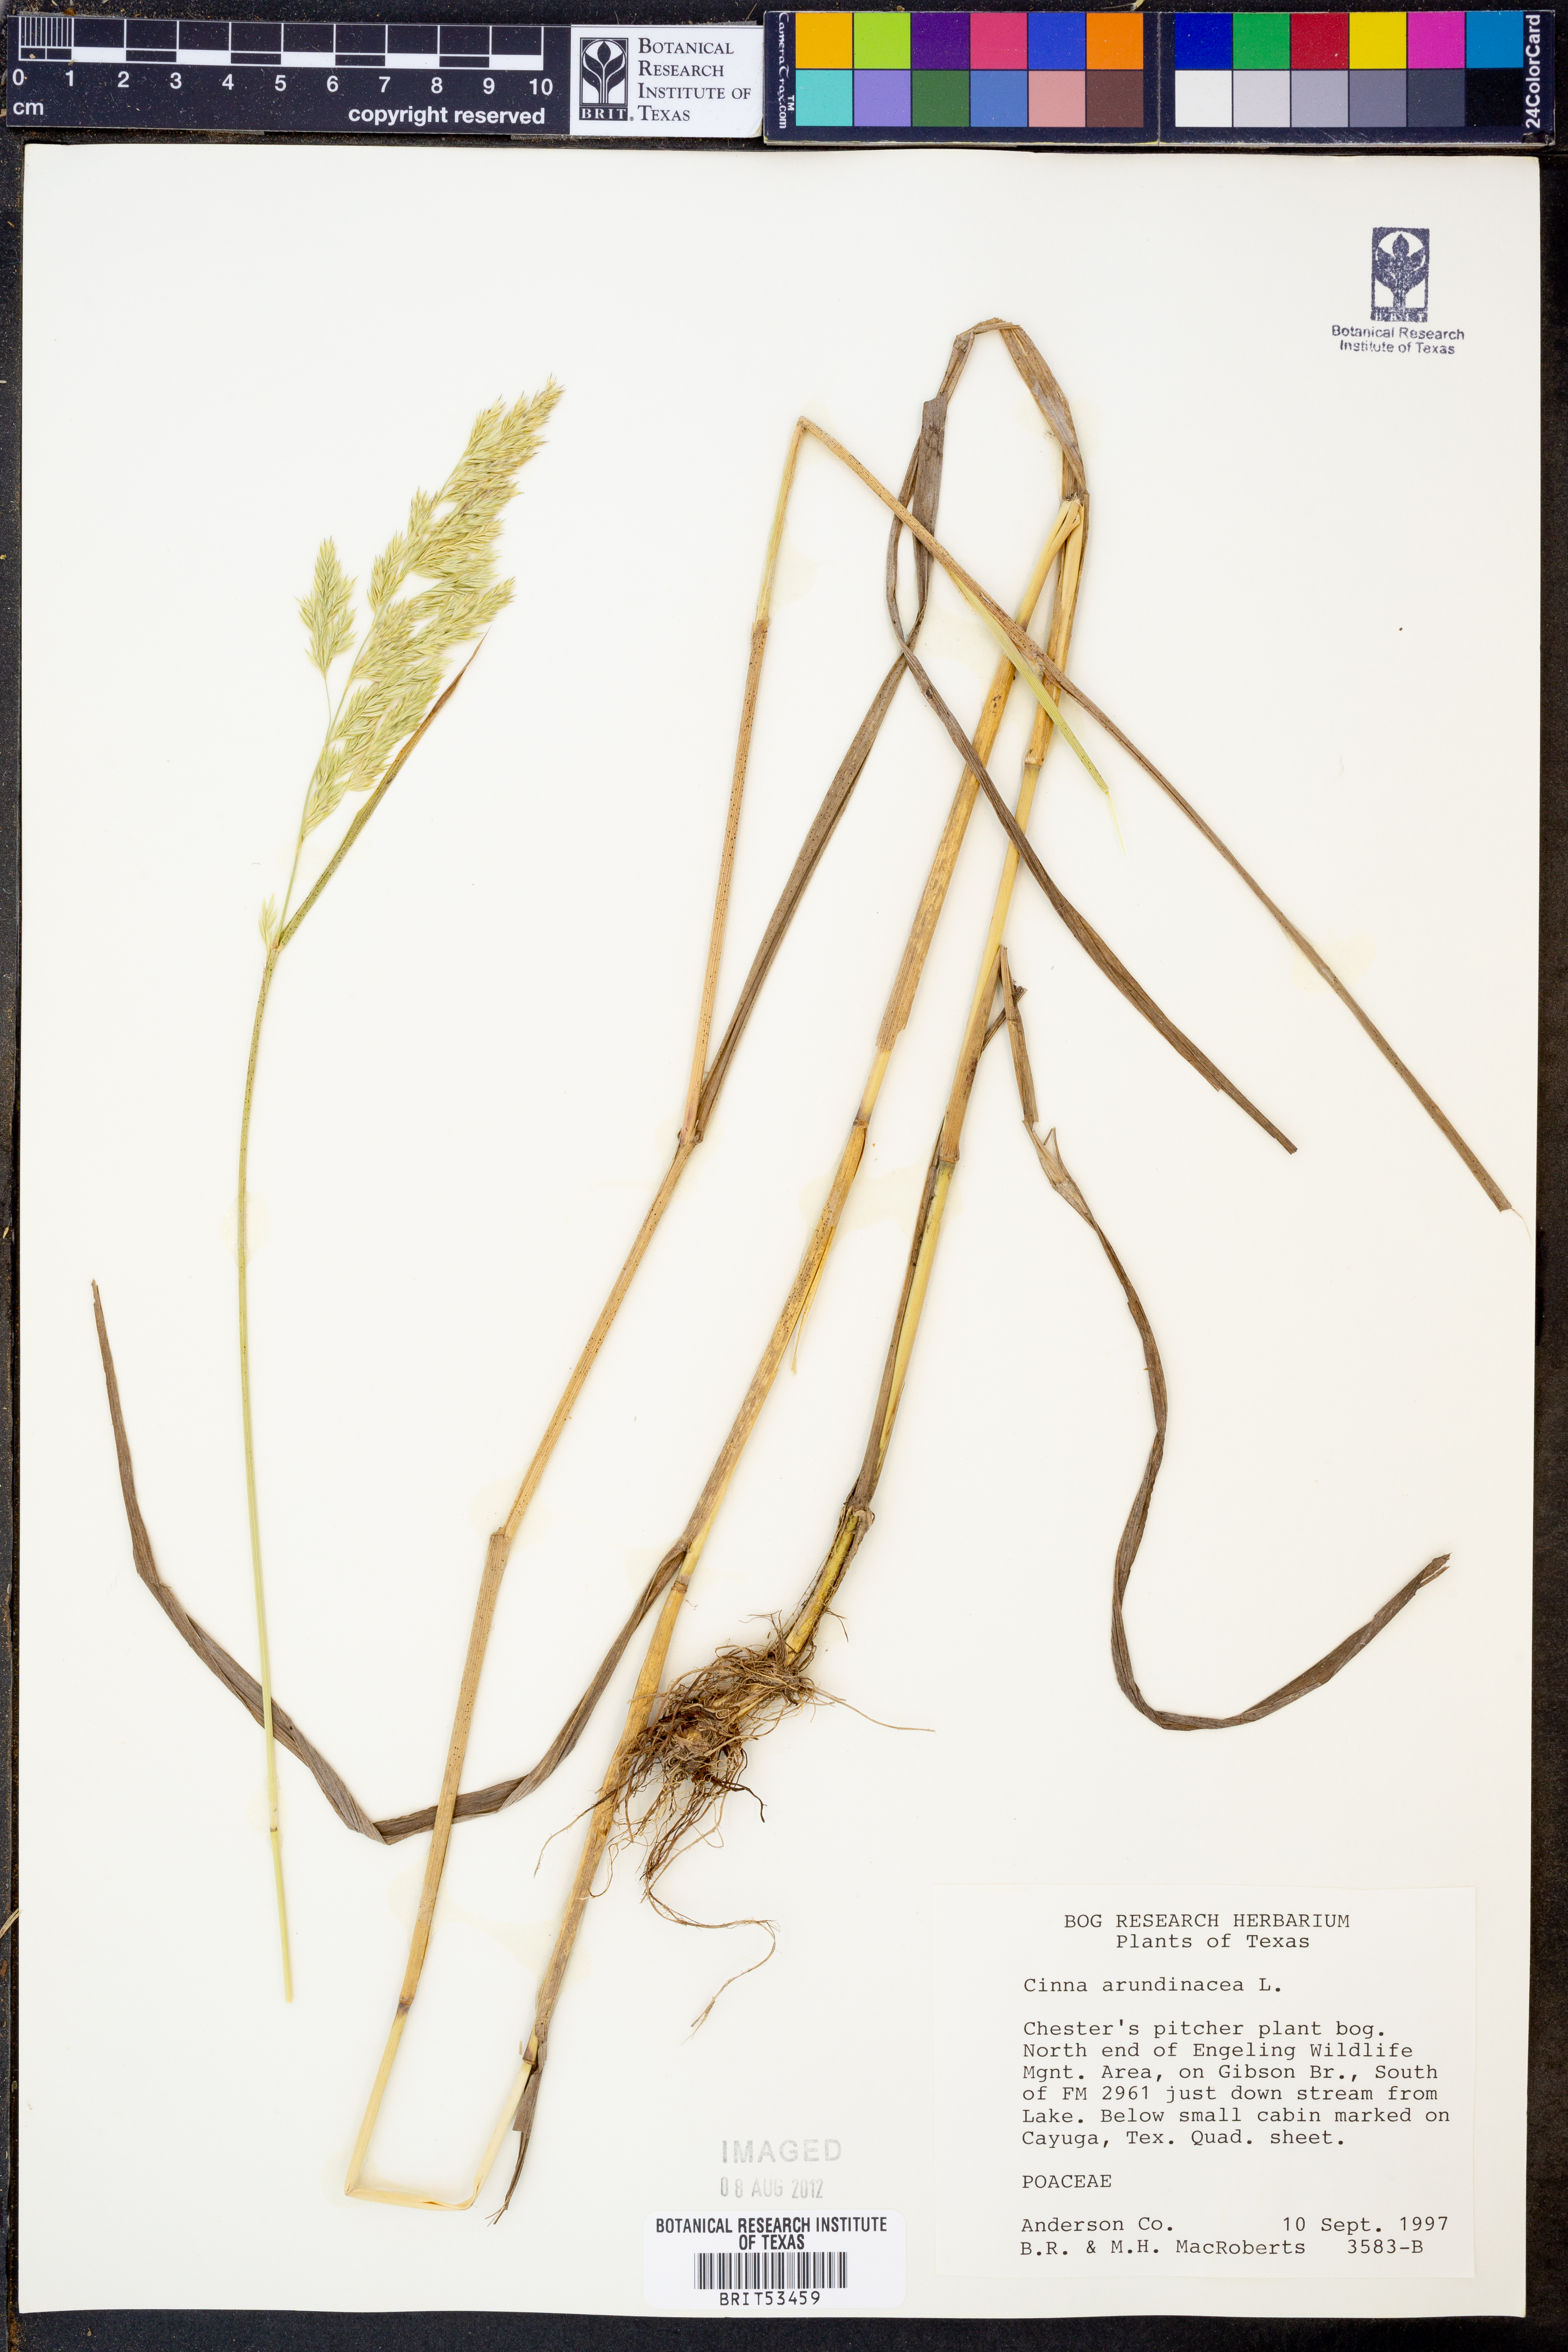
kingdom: Plantae
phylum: Tracheophyta
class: Liliopsida
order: Poales
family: Poaceae
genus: Cinna
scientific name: Cinna arundinacea
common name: Stout woodreed
